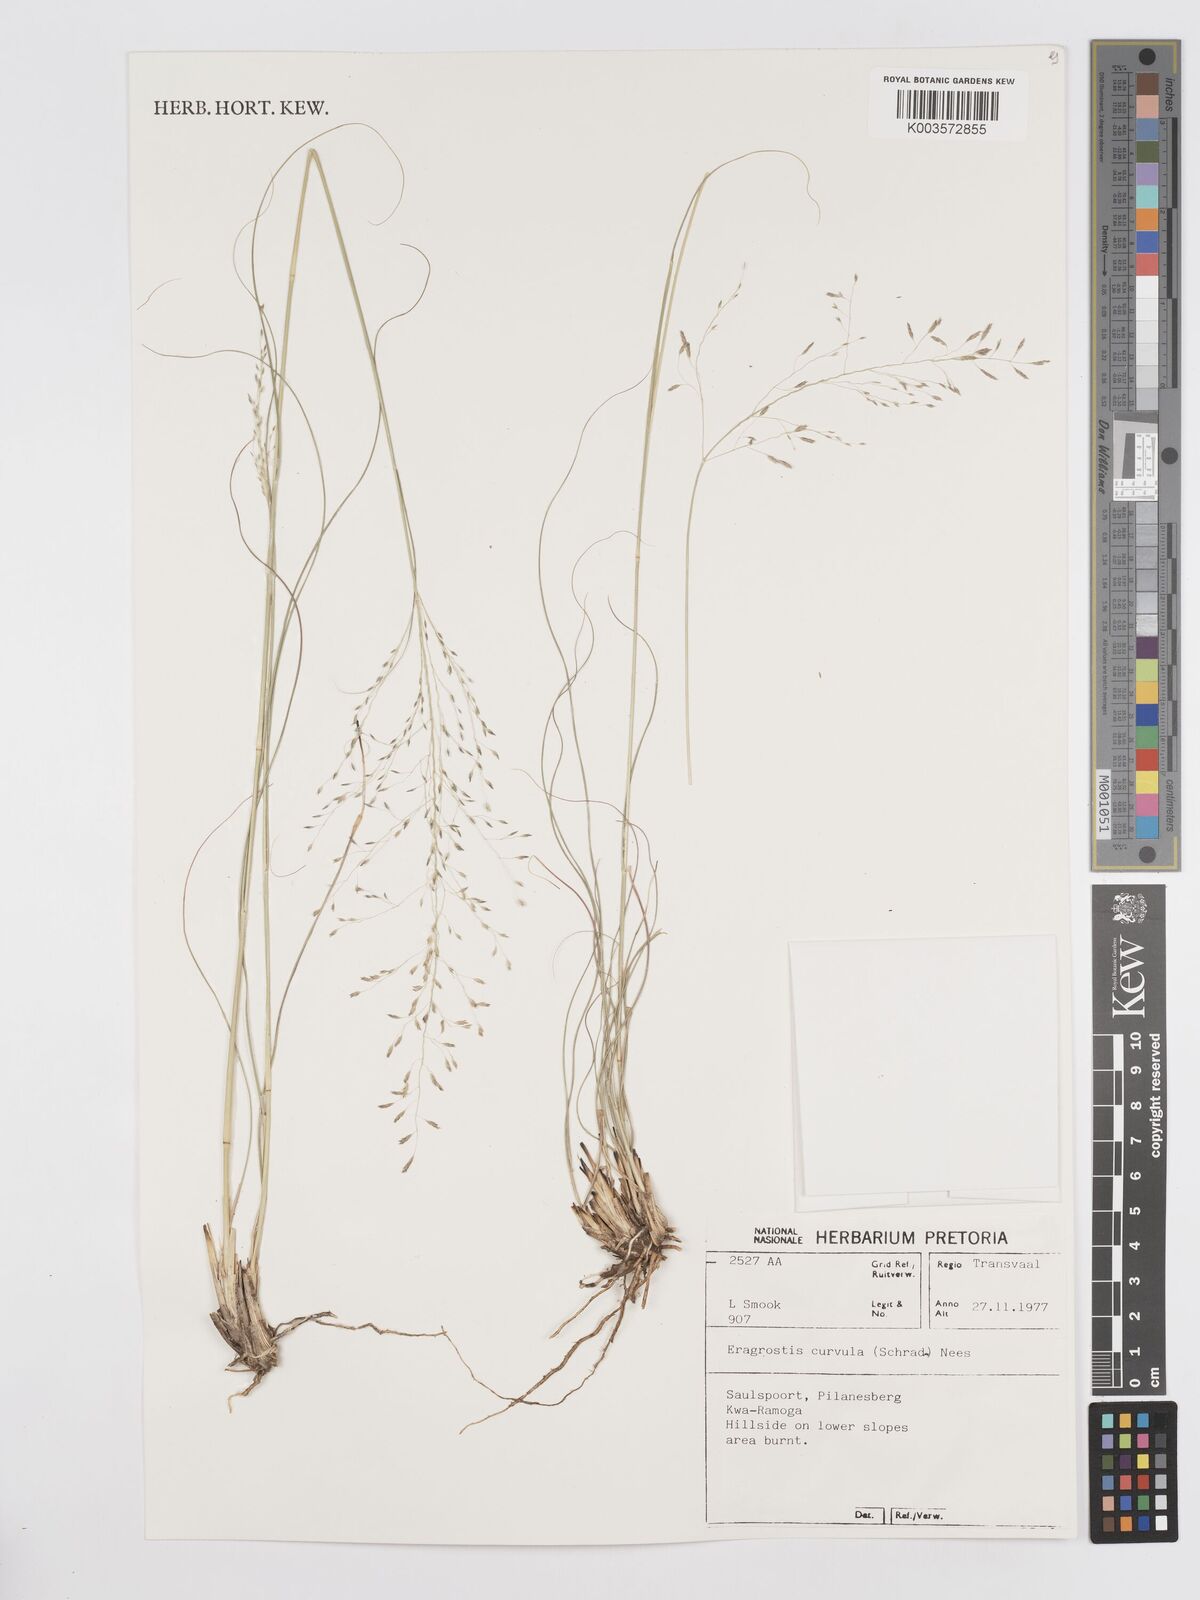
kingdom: Plantae
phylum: Tracheophyta
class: Liliopsida
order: Poales
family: Poaceae
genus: Eragrostis
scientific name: Eragrostis curvula
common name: African love-grass
